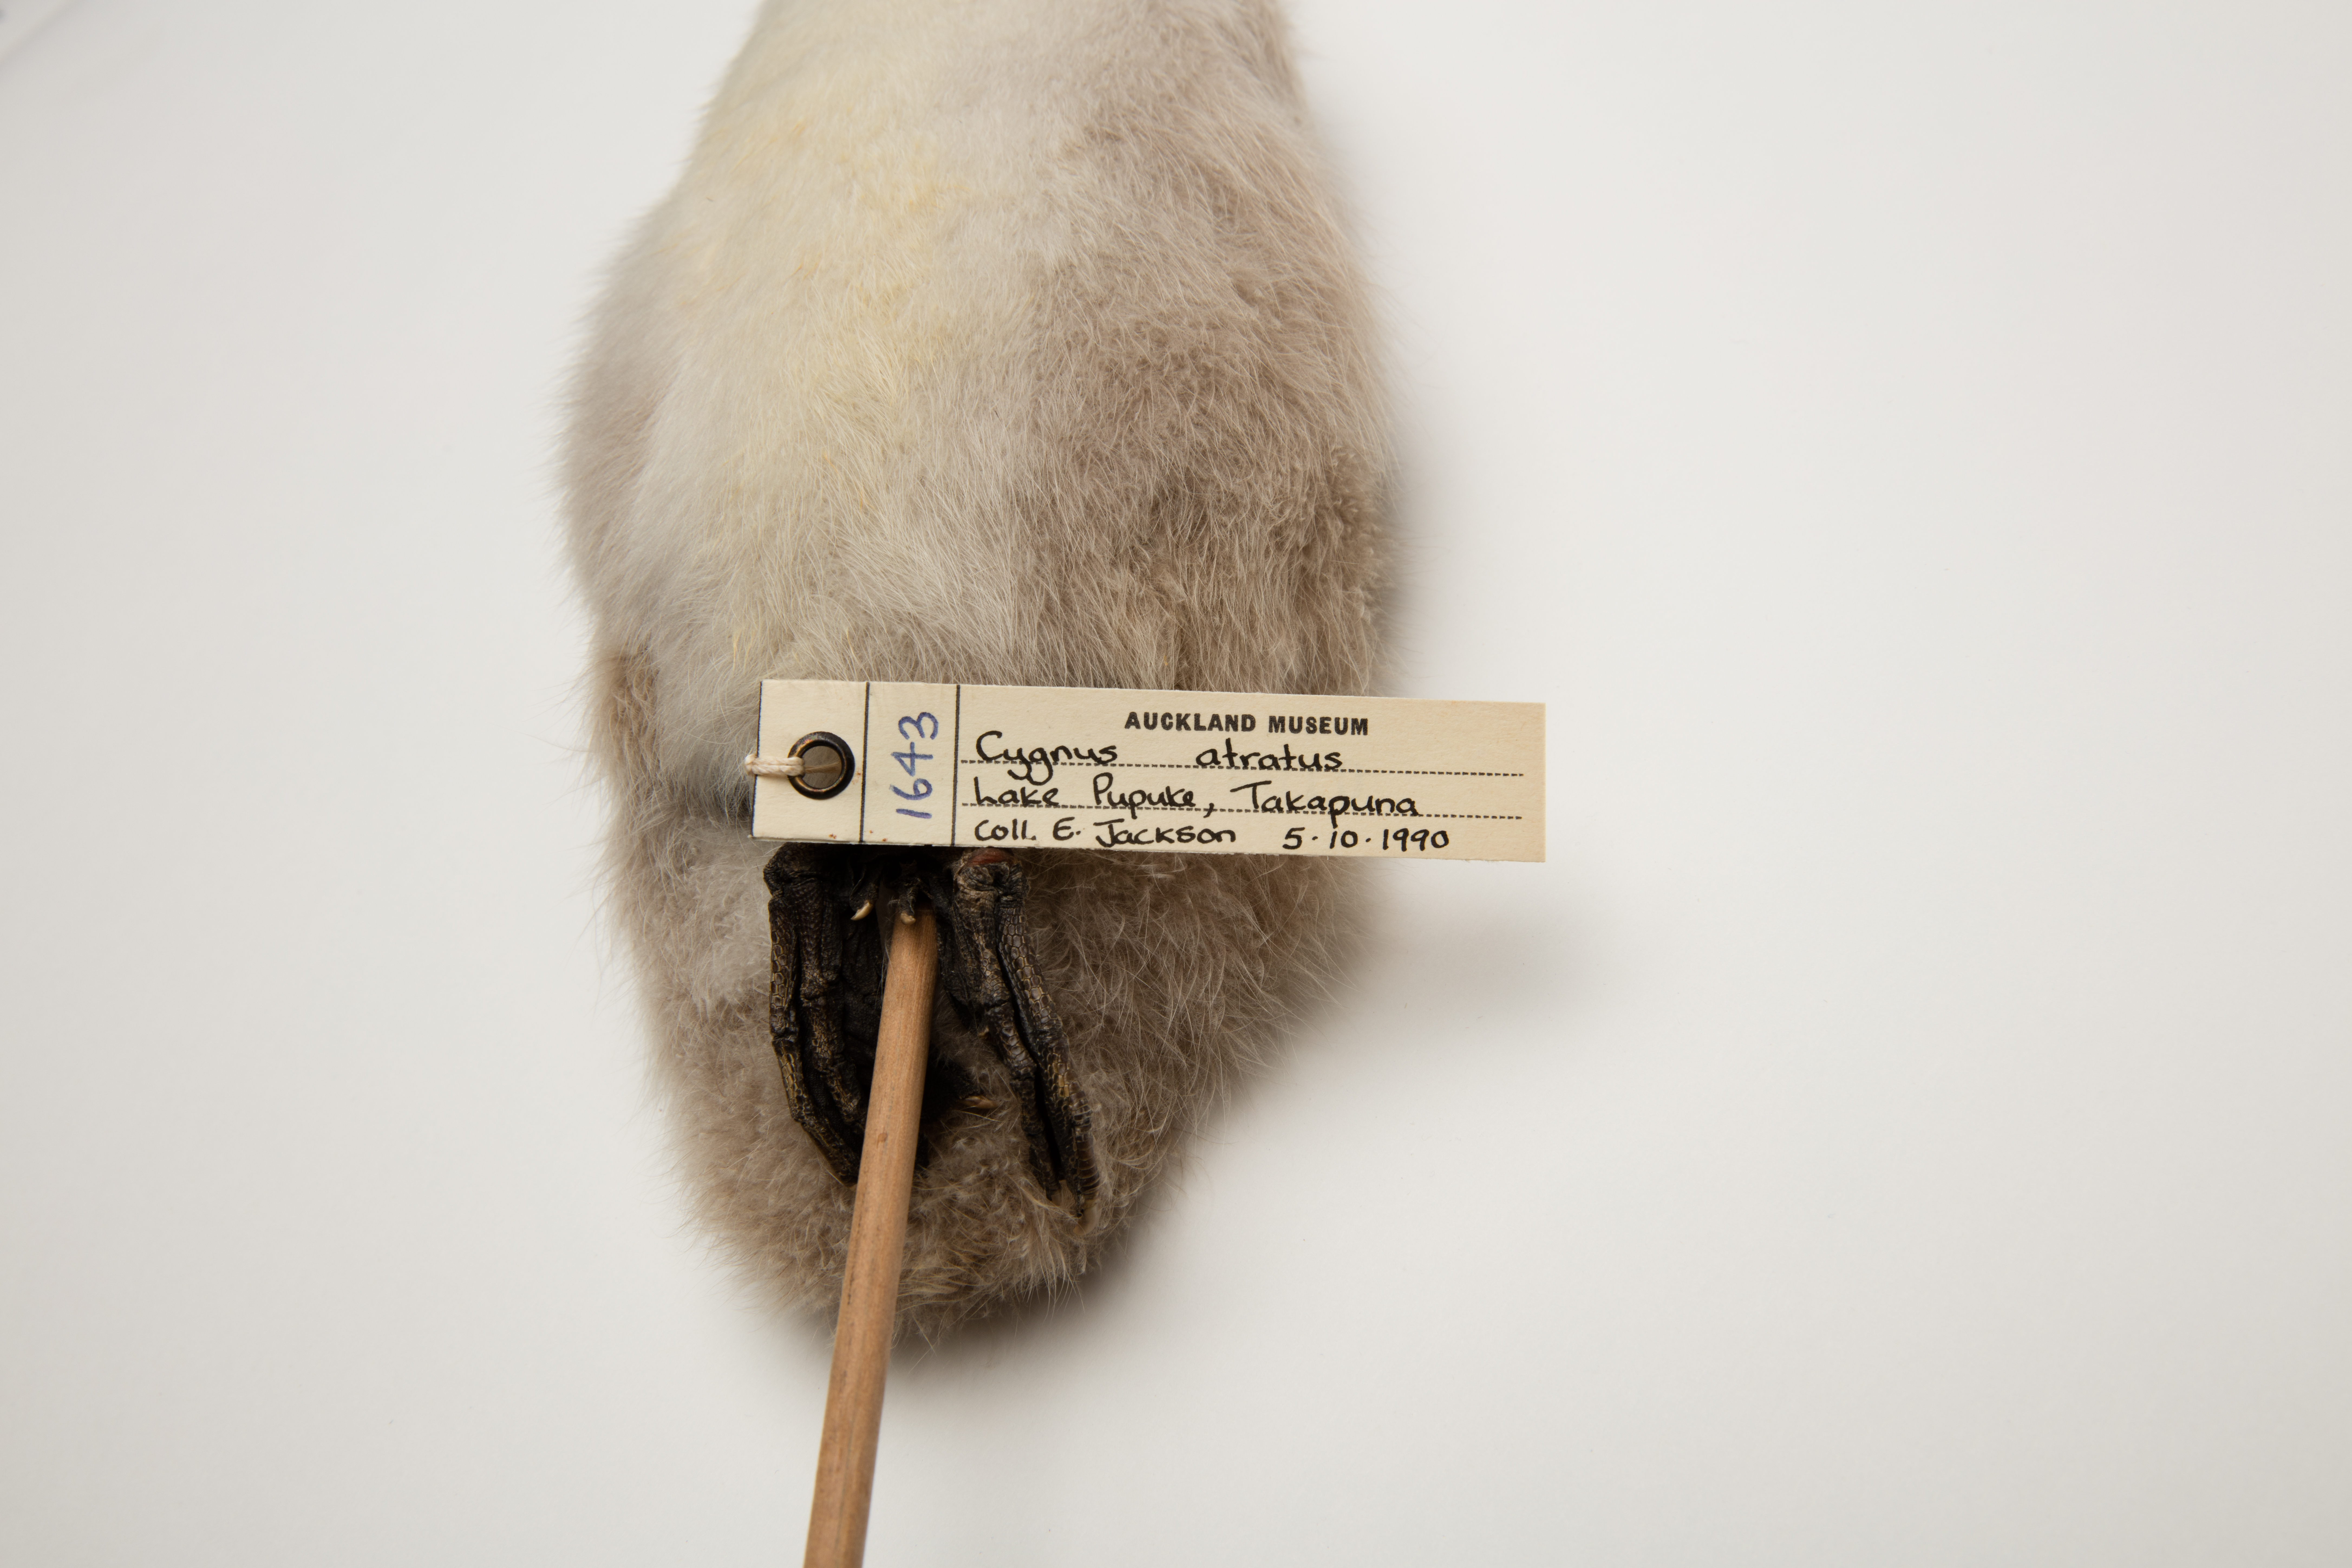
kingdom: Animalia
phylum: Chordata
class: Aves
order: Anseriformes
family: Anatidae
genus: Cygnus
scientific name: Cygnus atratus
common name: Black swan
